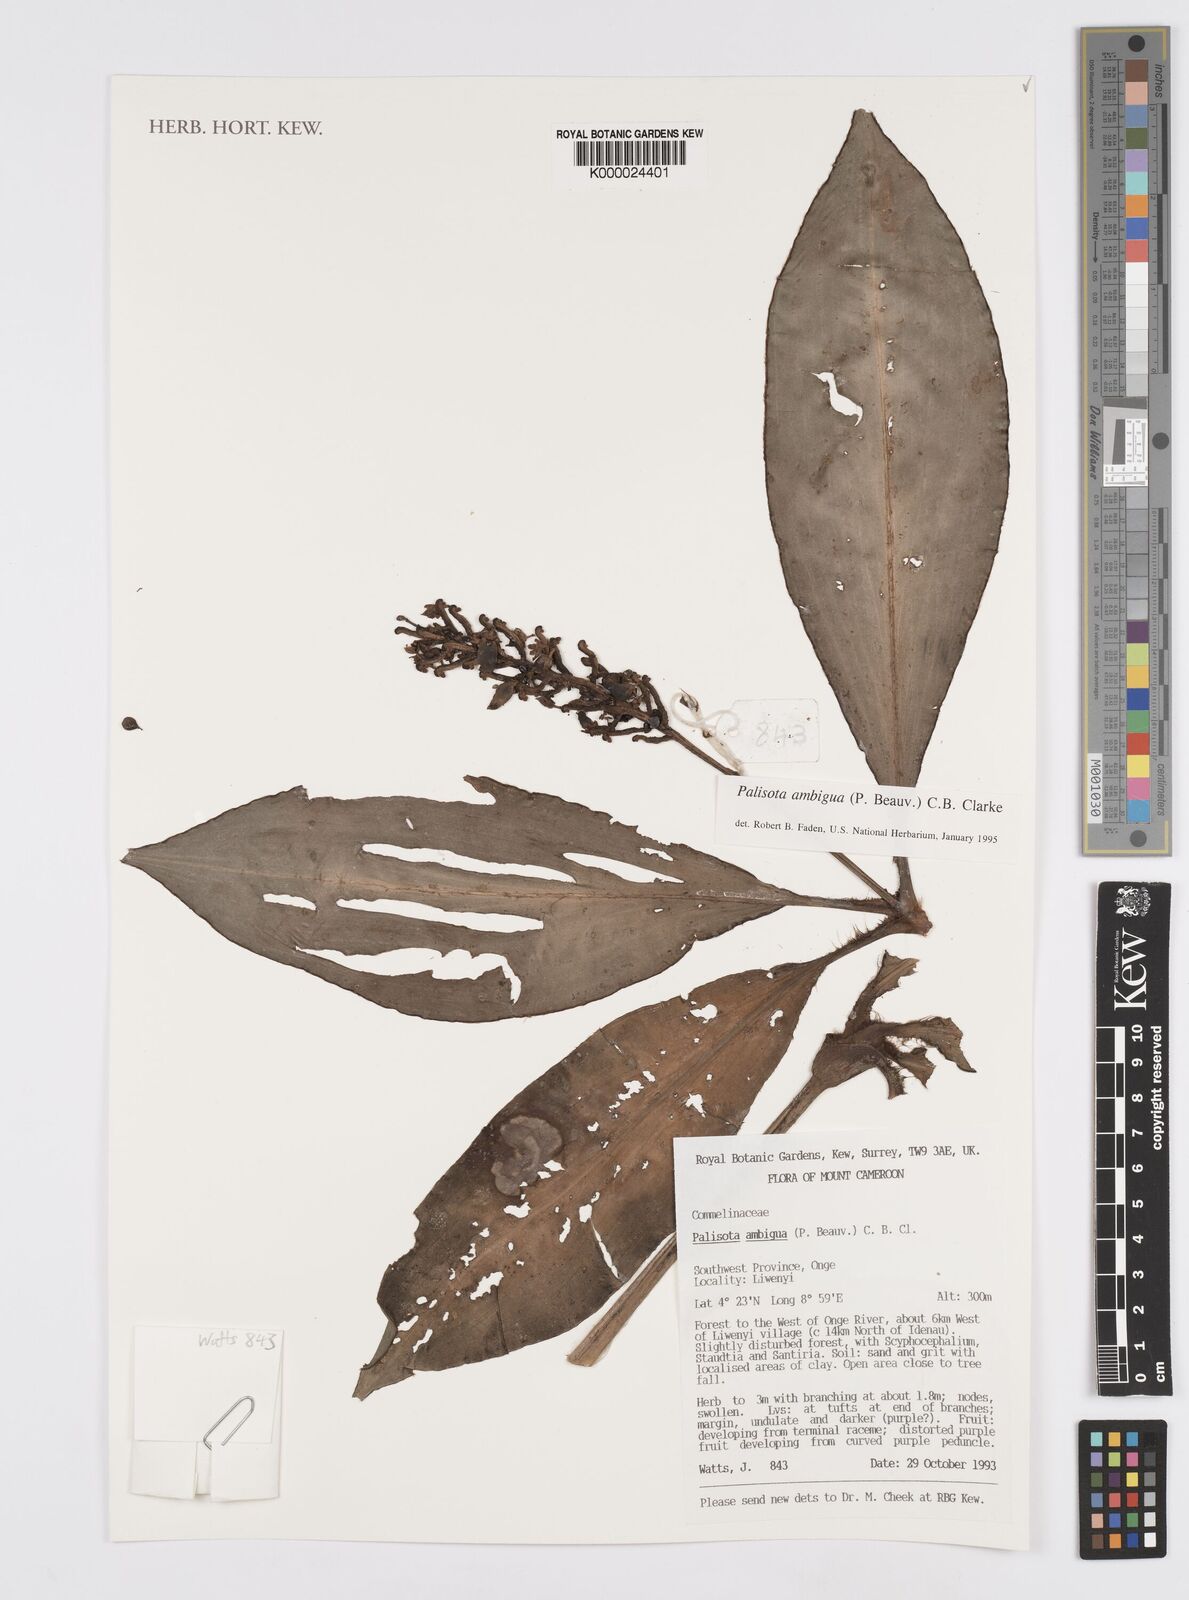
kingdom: Plantae
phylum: Tracheophyta
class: Liliopsida
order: Commelinales
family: Commelinaceae
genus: Palisota
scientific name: Palisota ambigua
